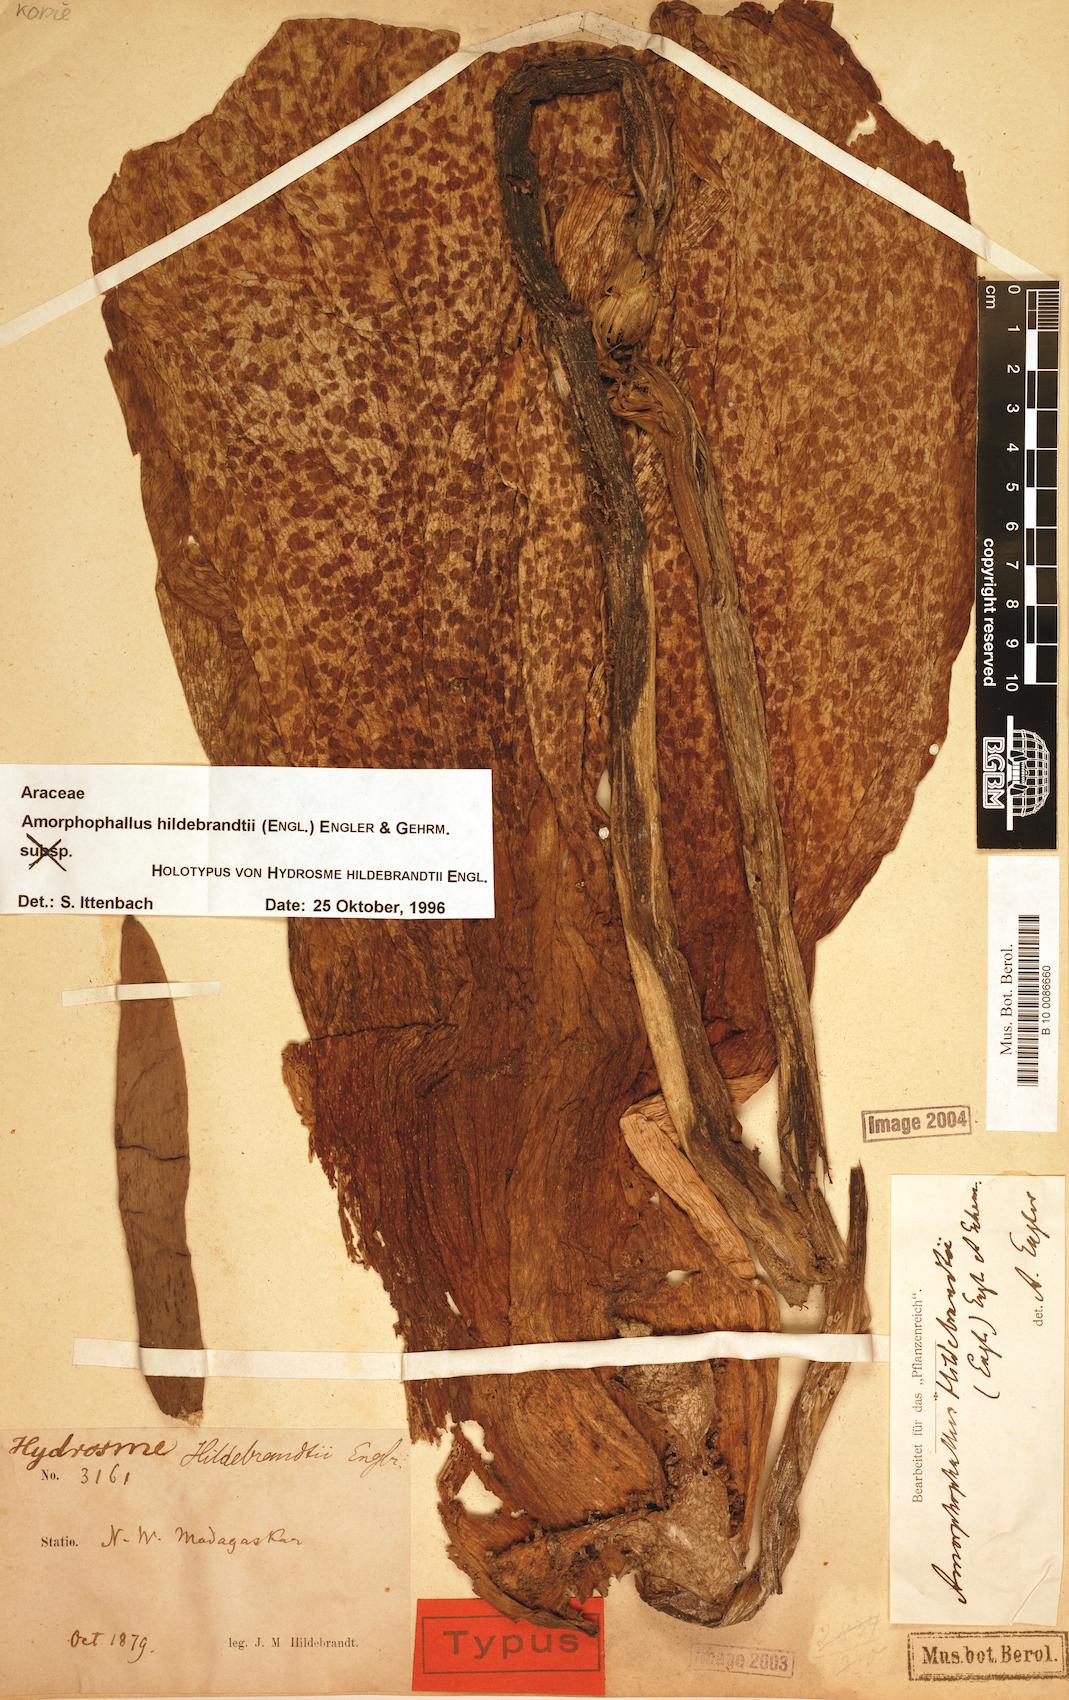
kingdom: Plantae
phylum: Tracheophyta
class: Liliopsida
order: Alismatales
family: Araceae
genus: Amorphophallus
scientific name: Amorphophallus hildebrandtii
